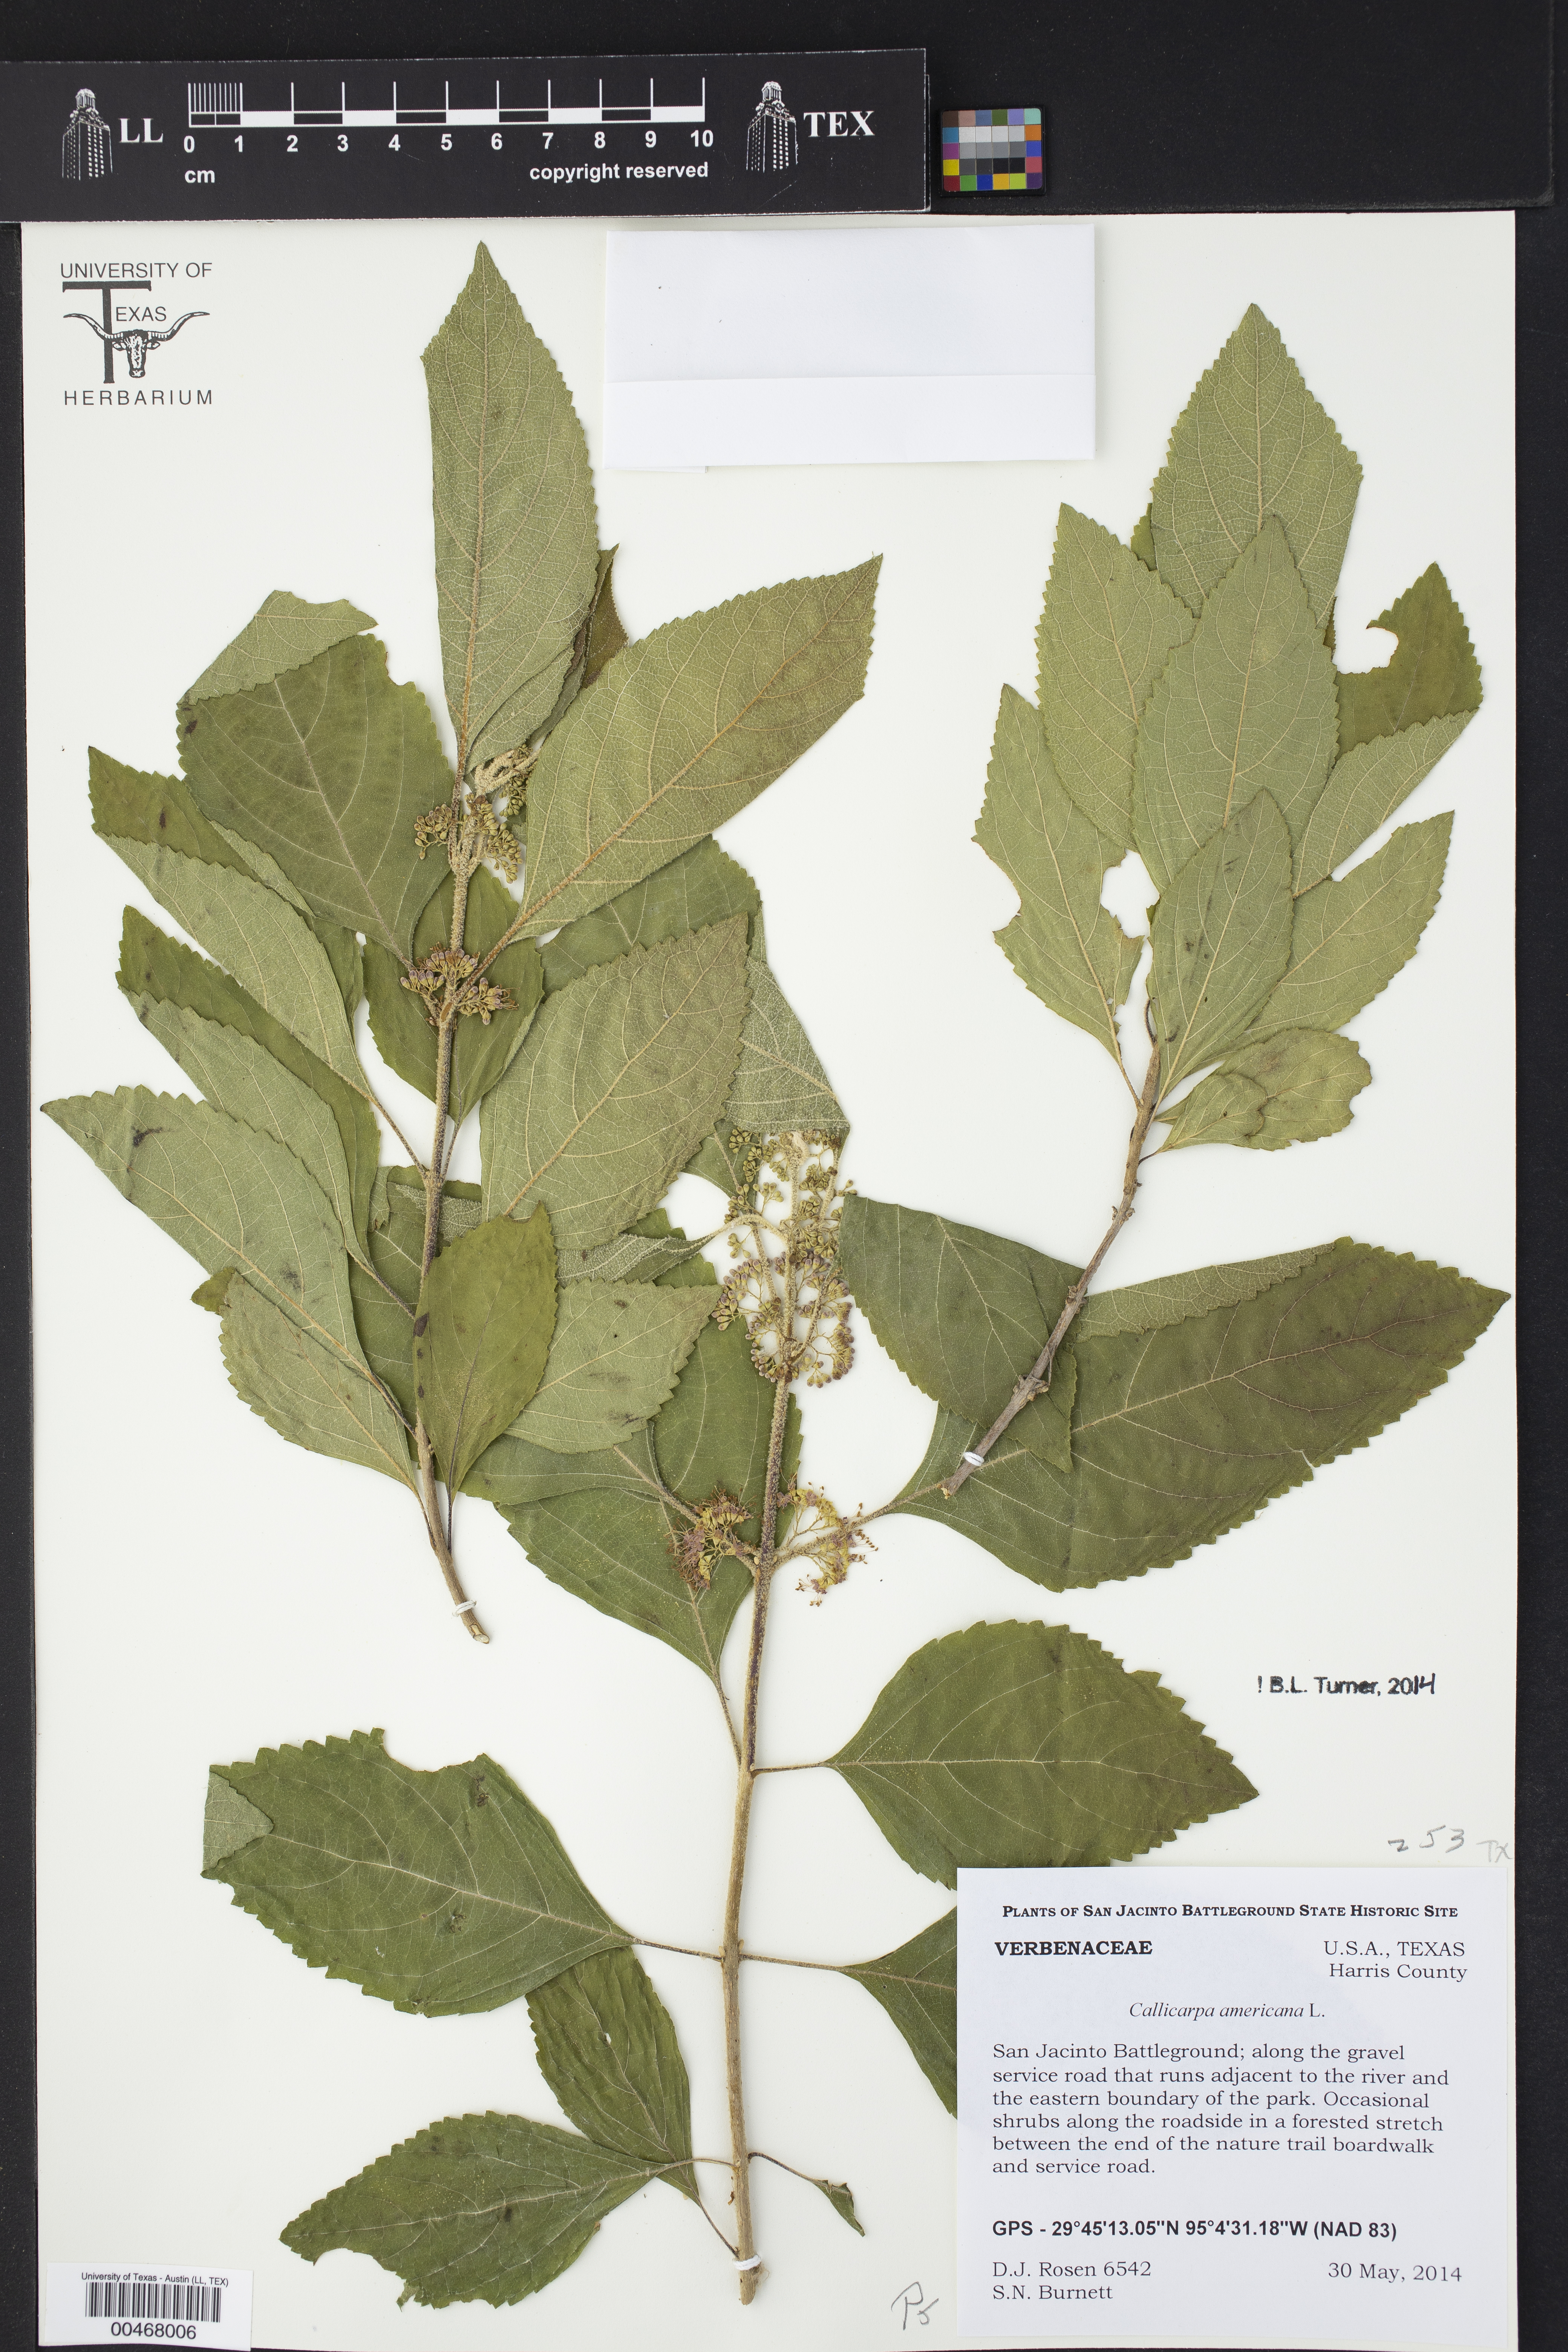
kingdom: Plantae
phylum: Tracheophyta
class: Magnoliopsida
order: Lamiales
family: Lamiaceae
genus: Callicarpa
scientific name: Callicarpa americana
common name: American beautyberry
